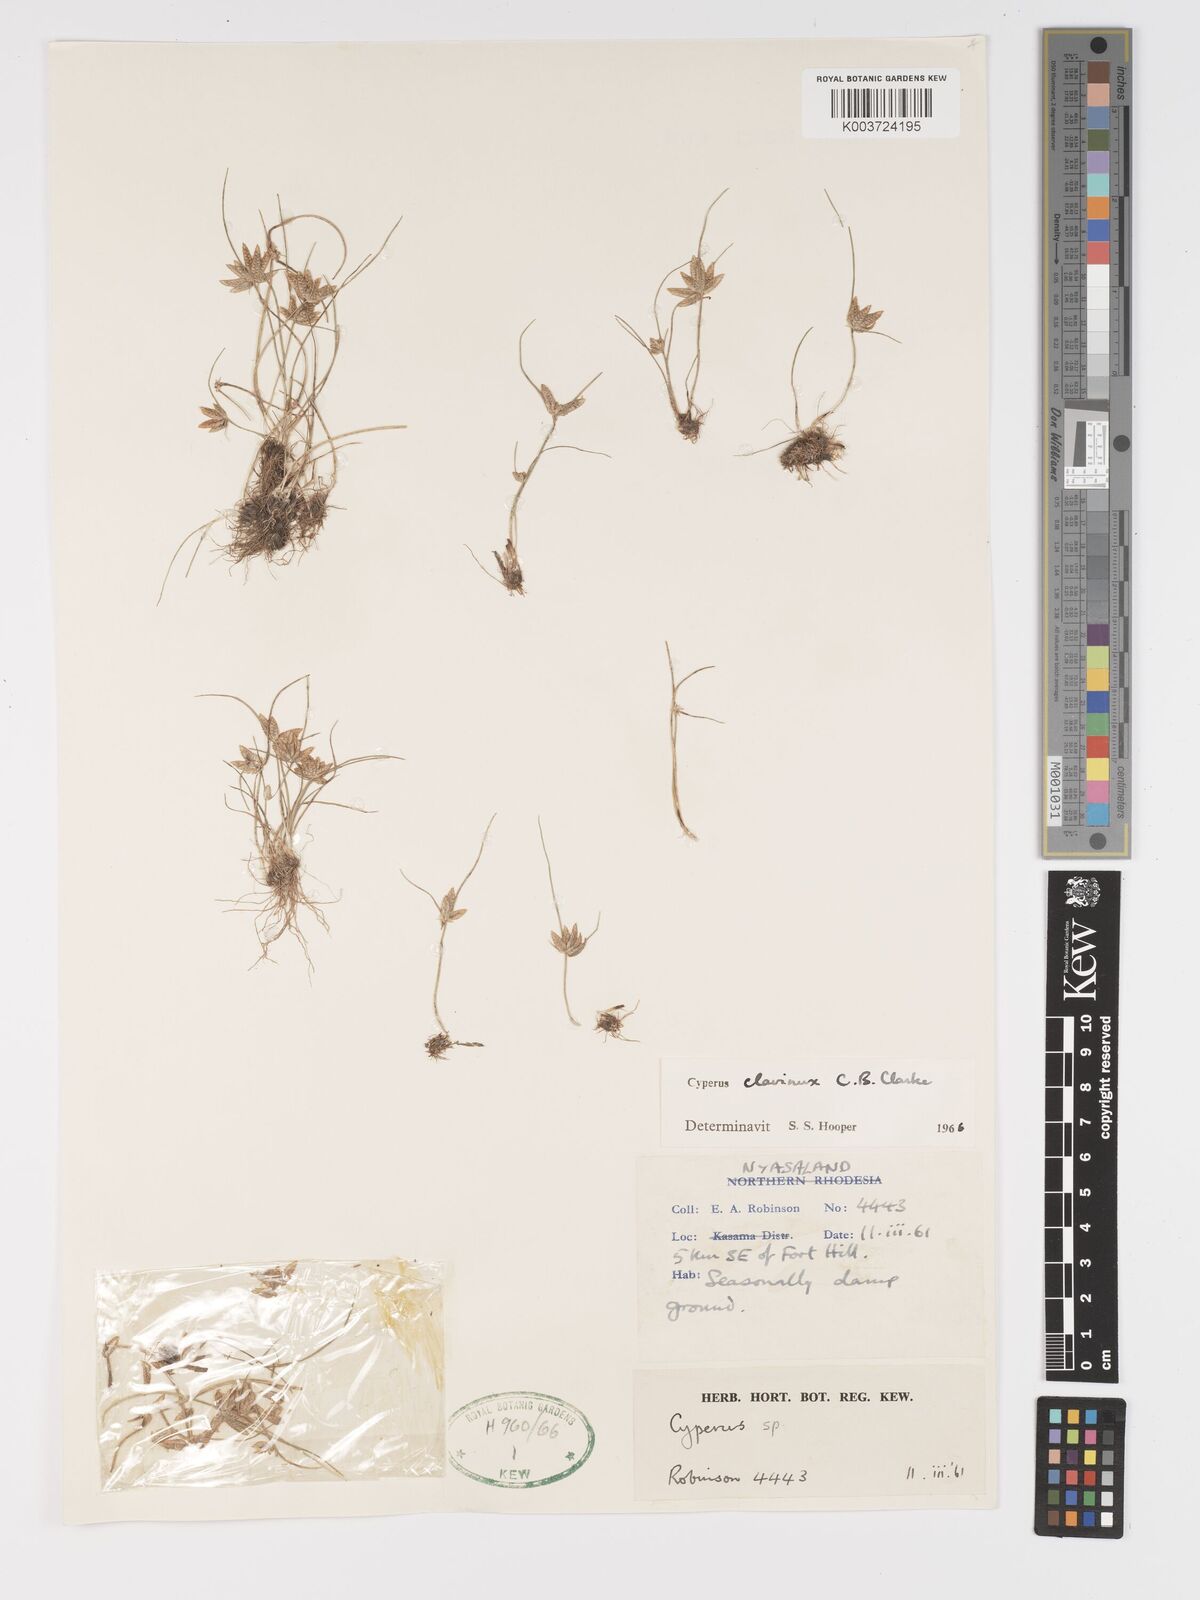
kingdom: Plantae
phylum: Tracheophyta
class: Liliopsida
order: Poales
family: Cyperaceae
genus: Cyperus
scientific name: Cyperus clavinux
